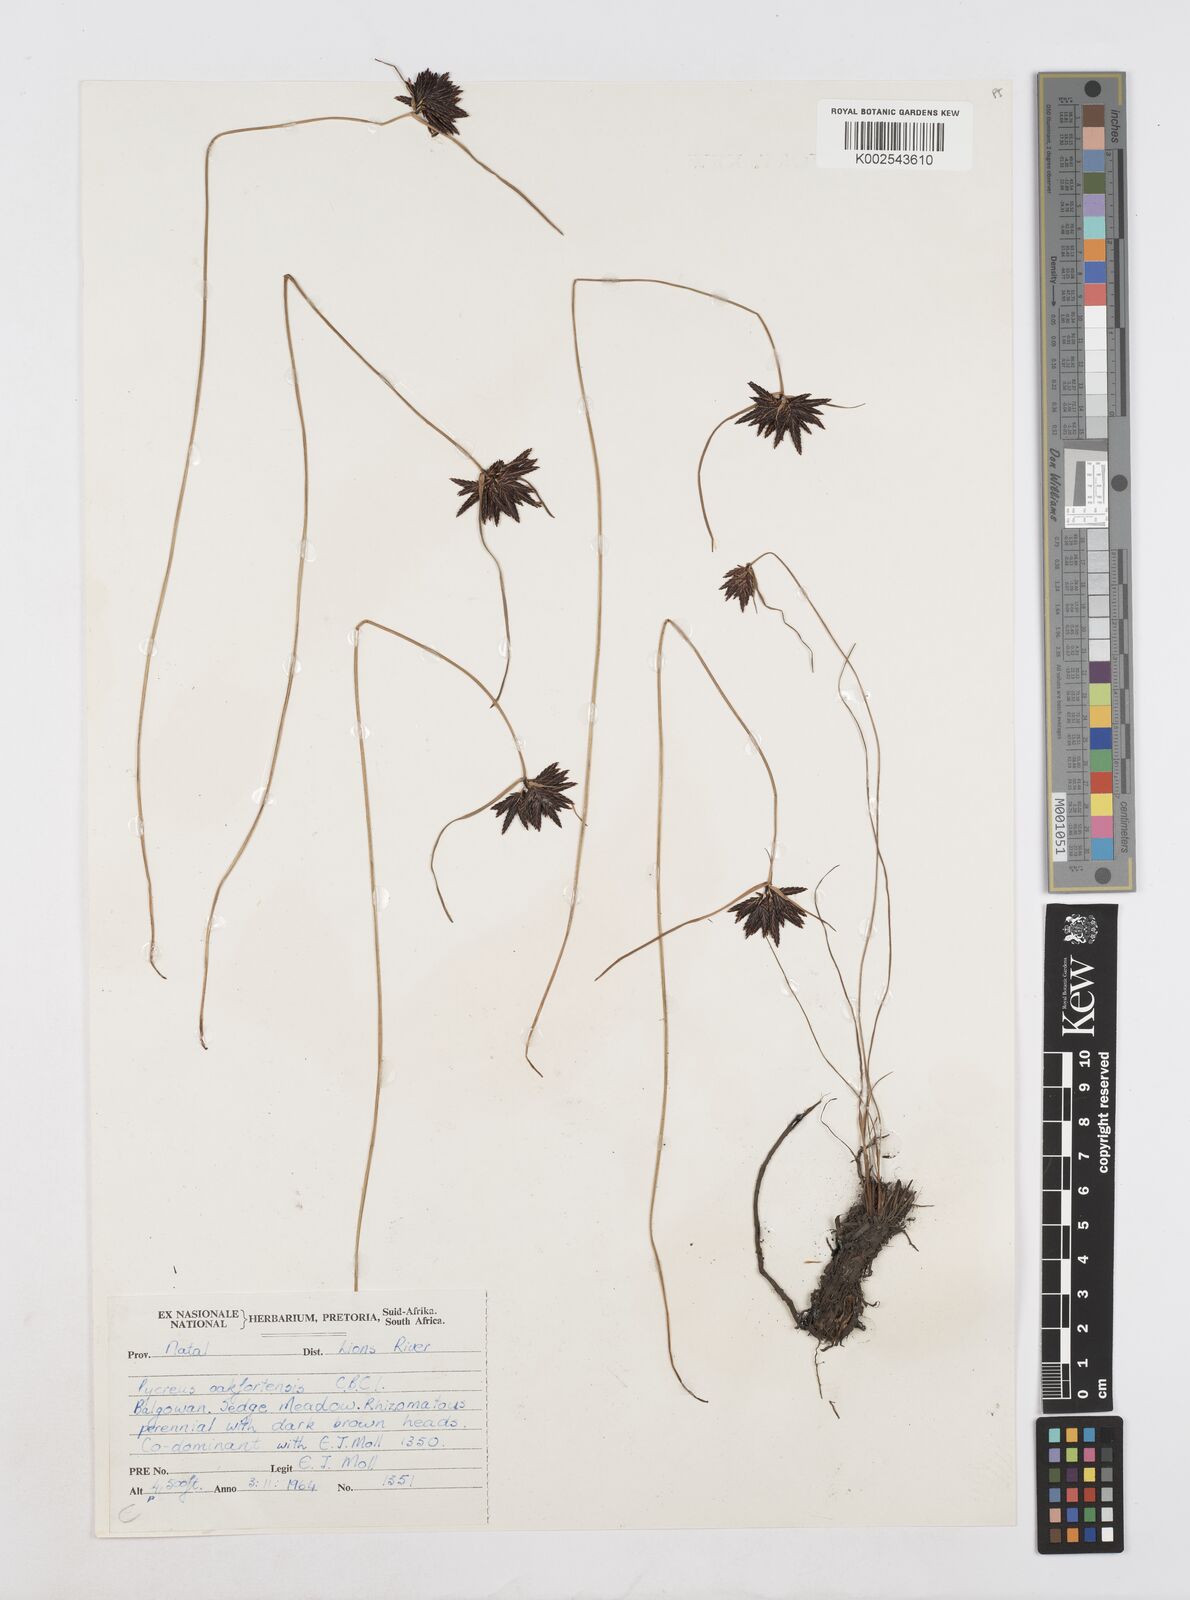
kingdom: Plantae
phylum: Tracheophyta
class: Liliopsida
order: Poales
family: Cyperaceae
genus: Cyperus
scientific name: Cyperus oakfortensis
